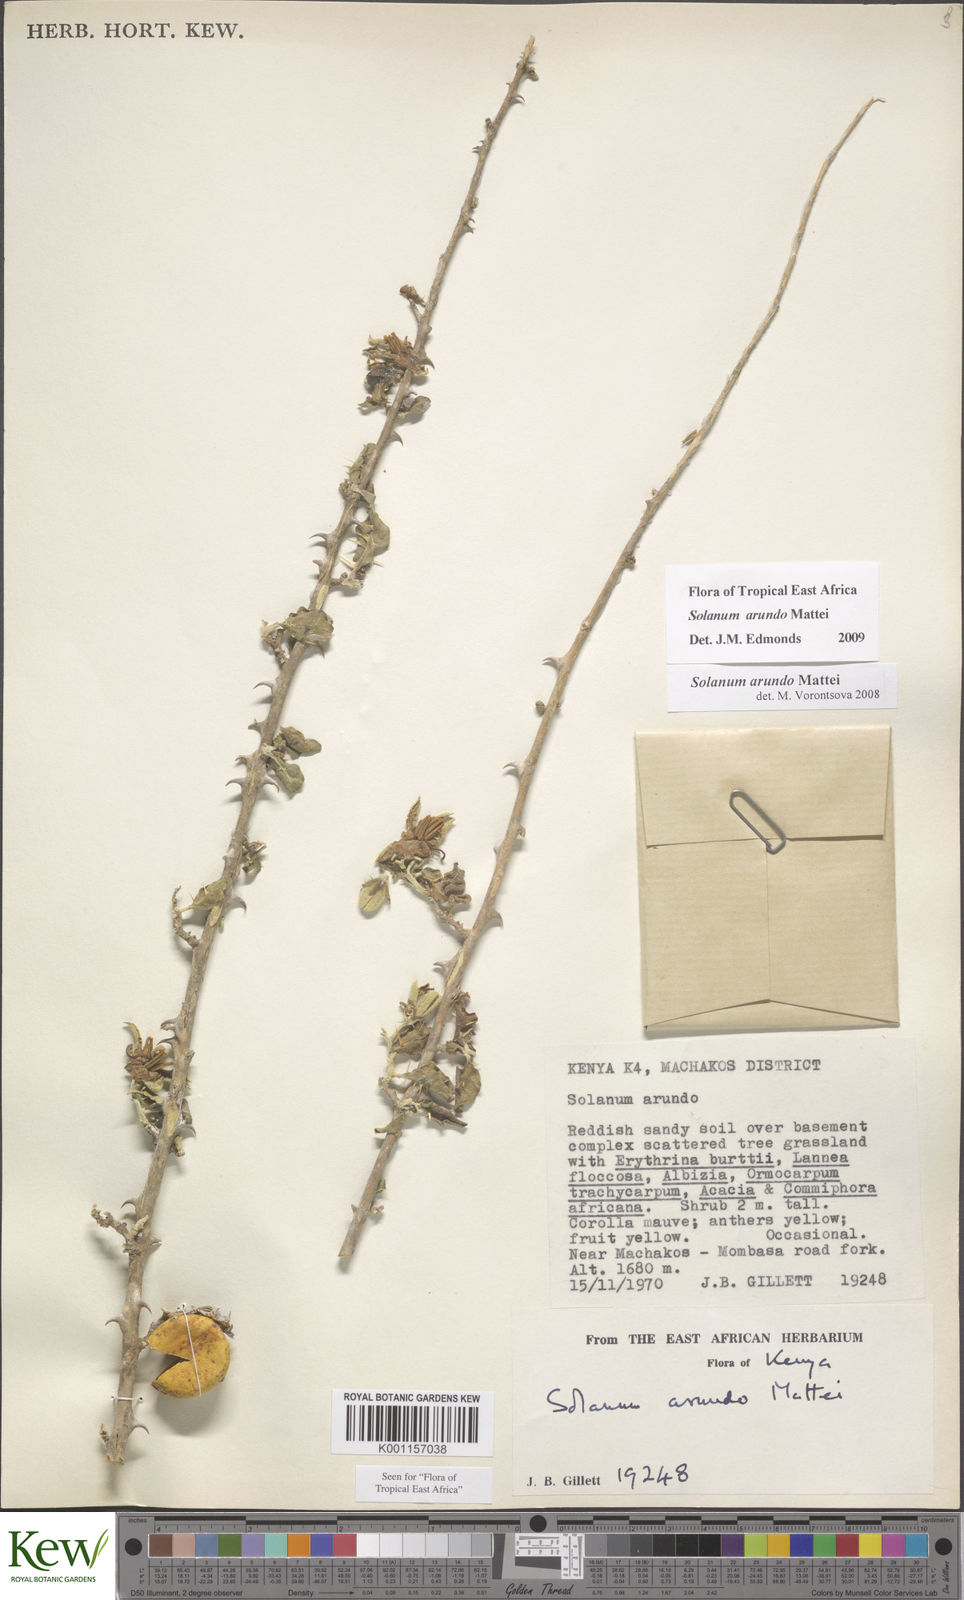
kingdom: Plantae
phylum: Tracheophyta
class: Magnoliopsida
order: Solanales
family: Solanaceae
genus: Solanum
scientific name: Solanum arundo
